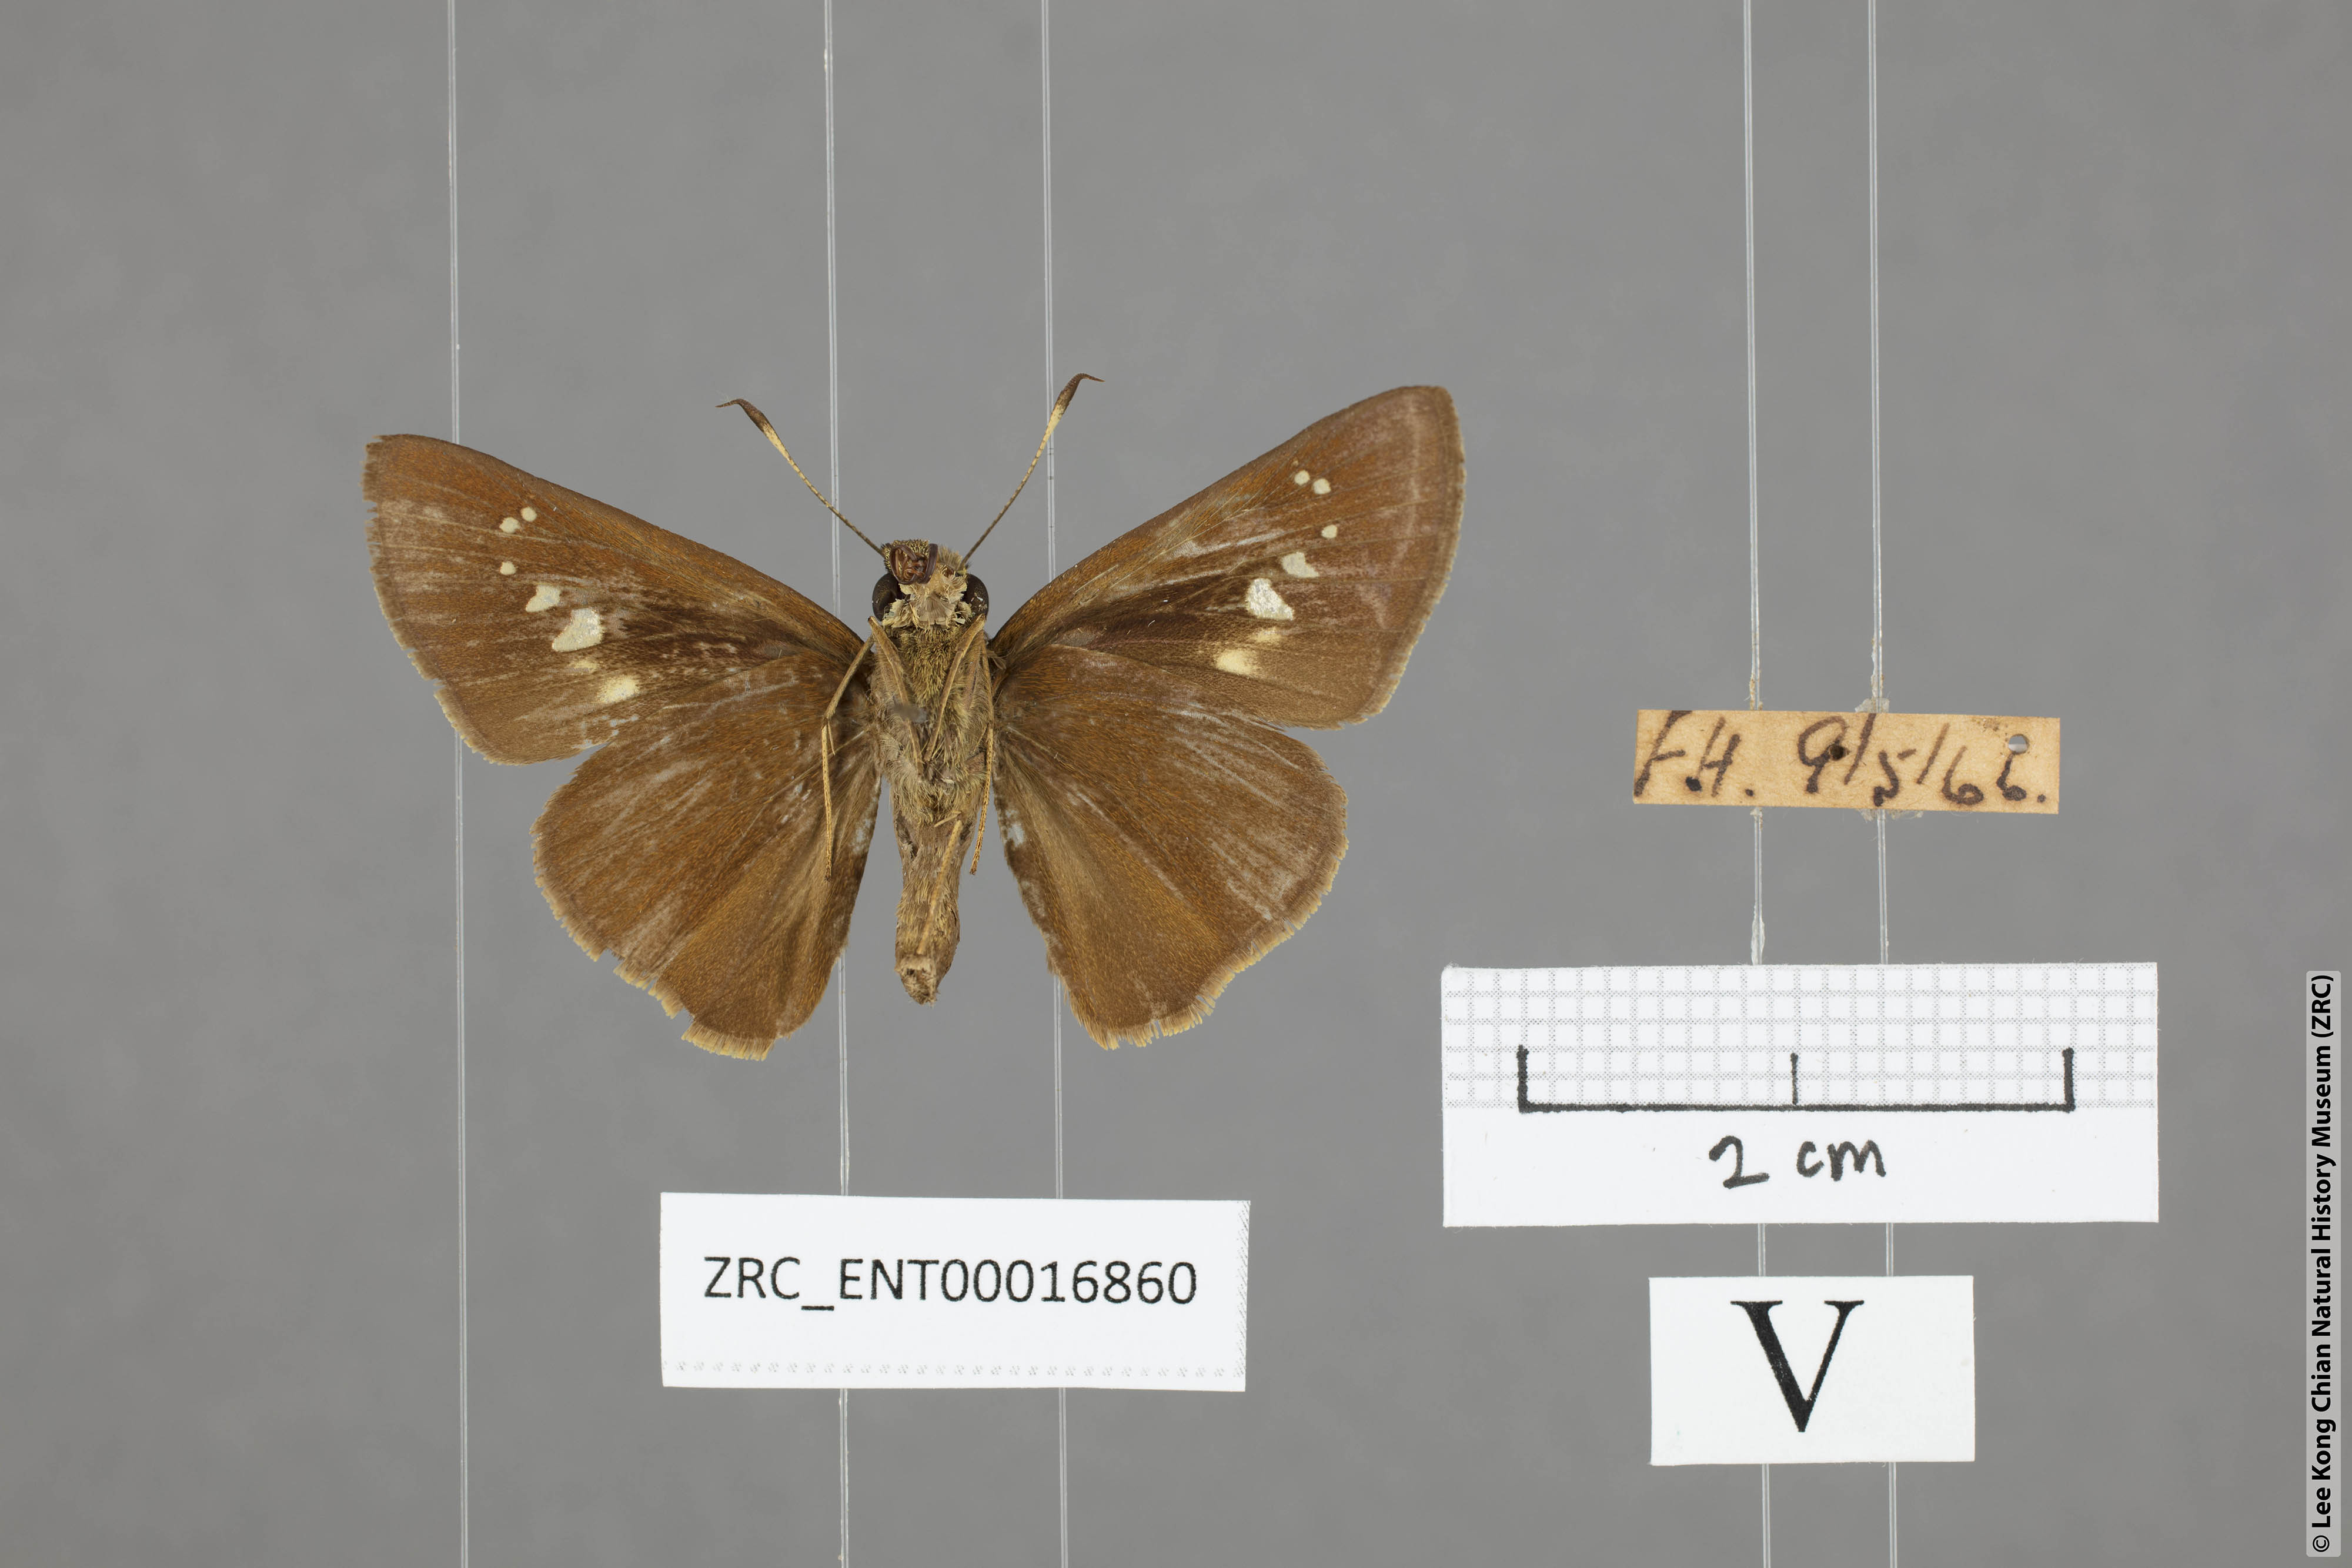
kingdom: Animalia
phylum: Arthropoda
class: Insecta
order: Lepidoptera
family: Hesperiidae
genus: Caltoris
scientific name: Caltoris sirius
